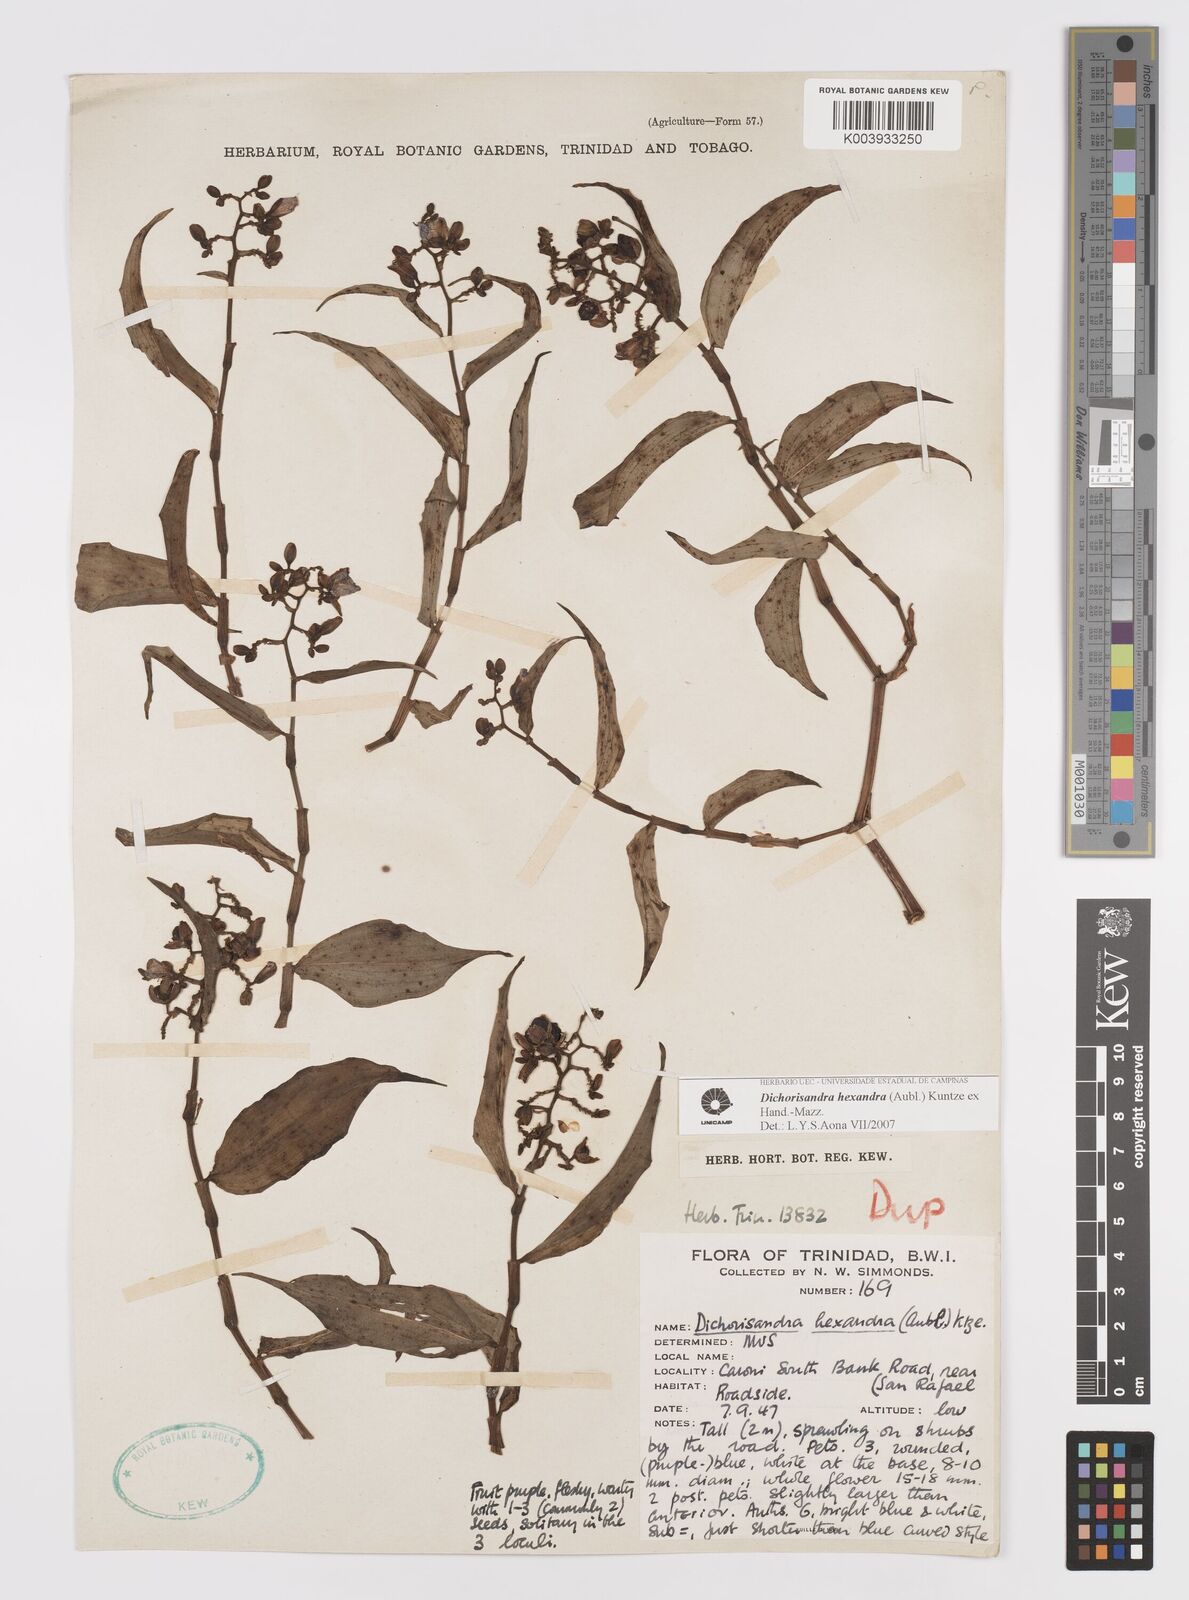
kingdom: Plantae
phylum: Tracheophyta
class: Liliopsida
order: Commelinales
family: Commelinaceae
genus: Dichorisandra
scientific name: Dichorisandra hexandra
